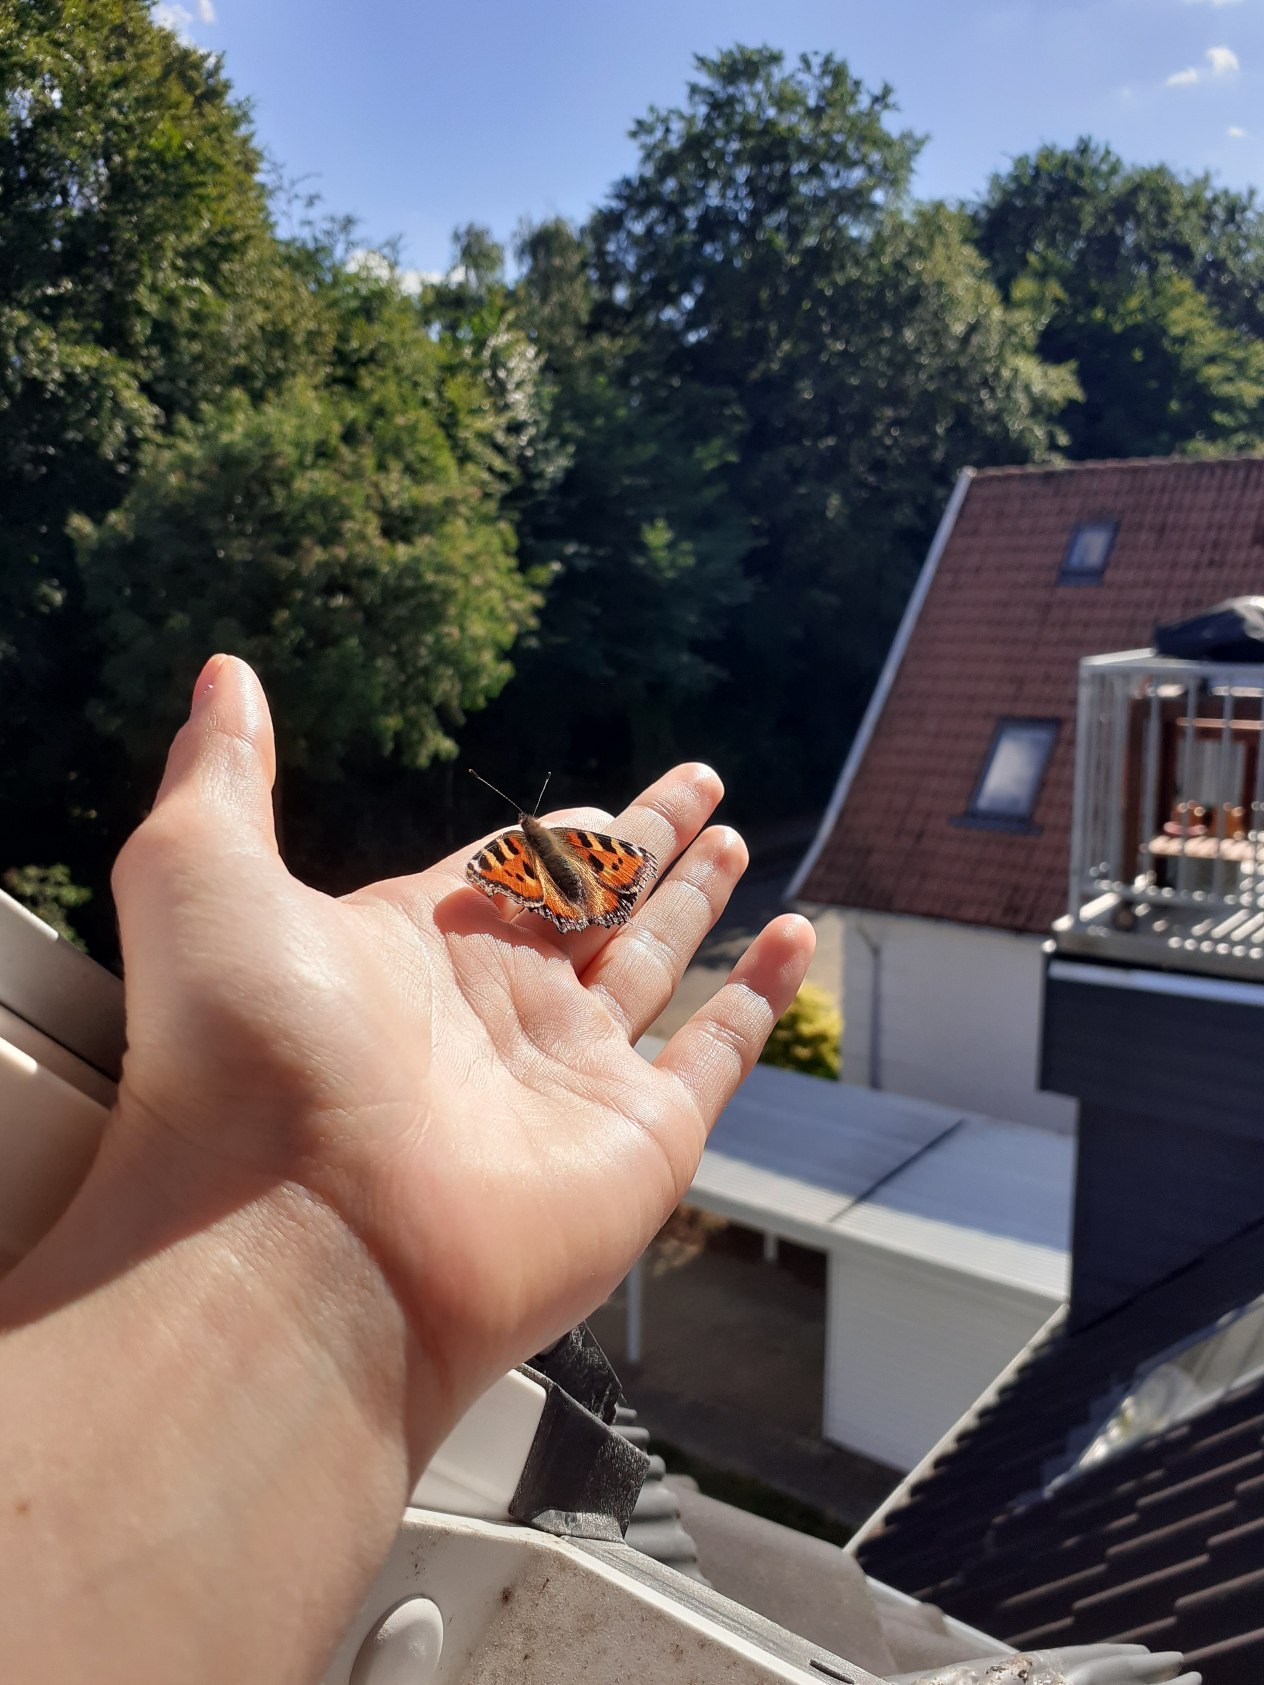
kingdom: Animalia
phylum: Arthropoda
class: Insecta
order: Lepidoptera
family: Nymphalidae
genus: Aglais
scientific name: Aglais urticae
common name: Nældens takvinge
